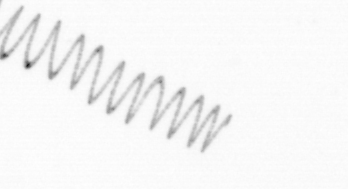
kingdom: Chromista
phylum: Ochrophyta
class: Bacillariophyceae
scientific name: Bacillariophyceae
